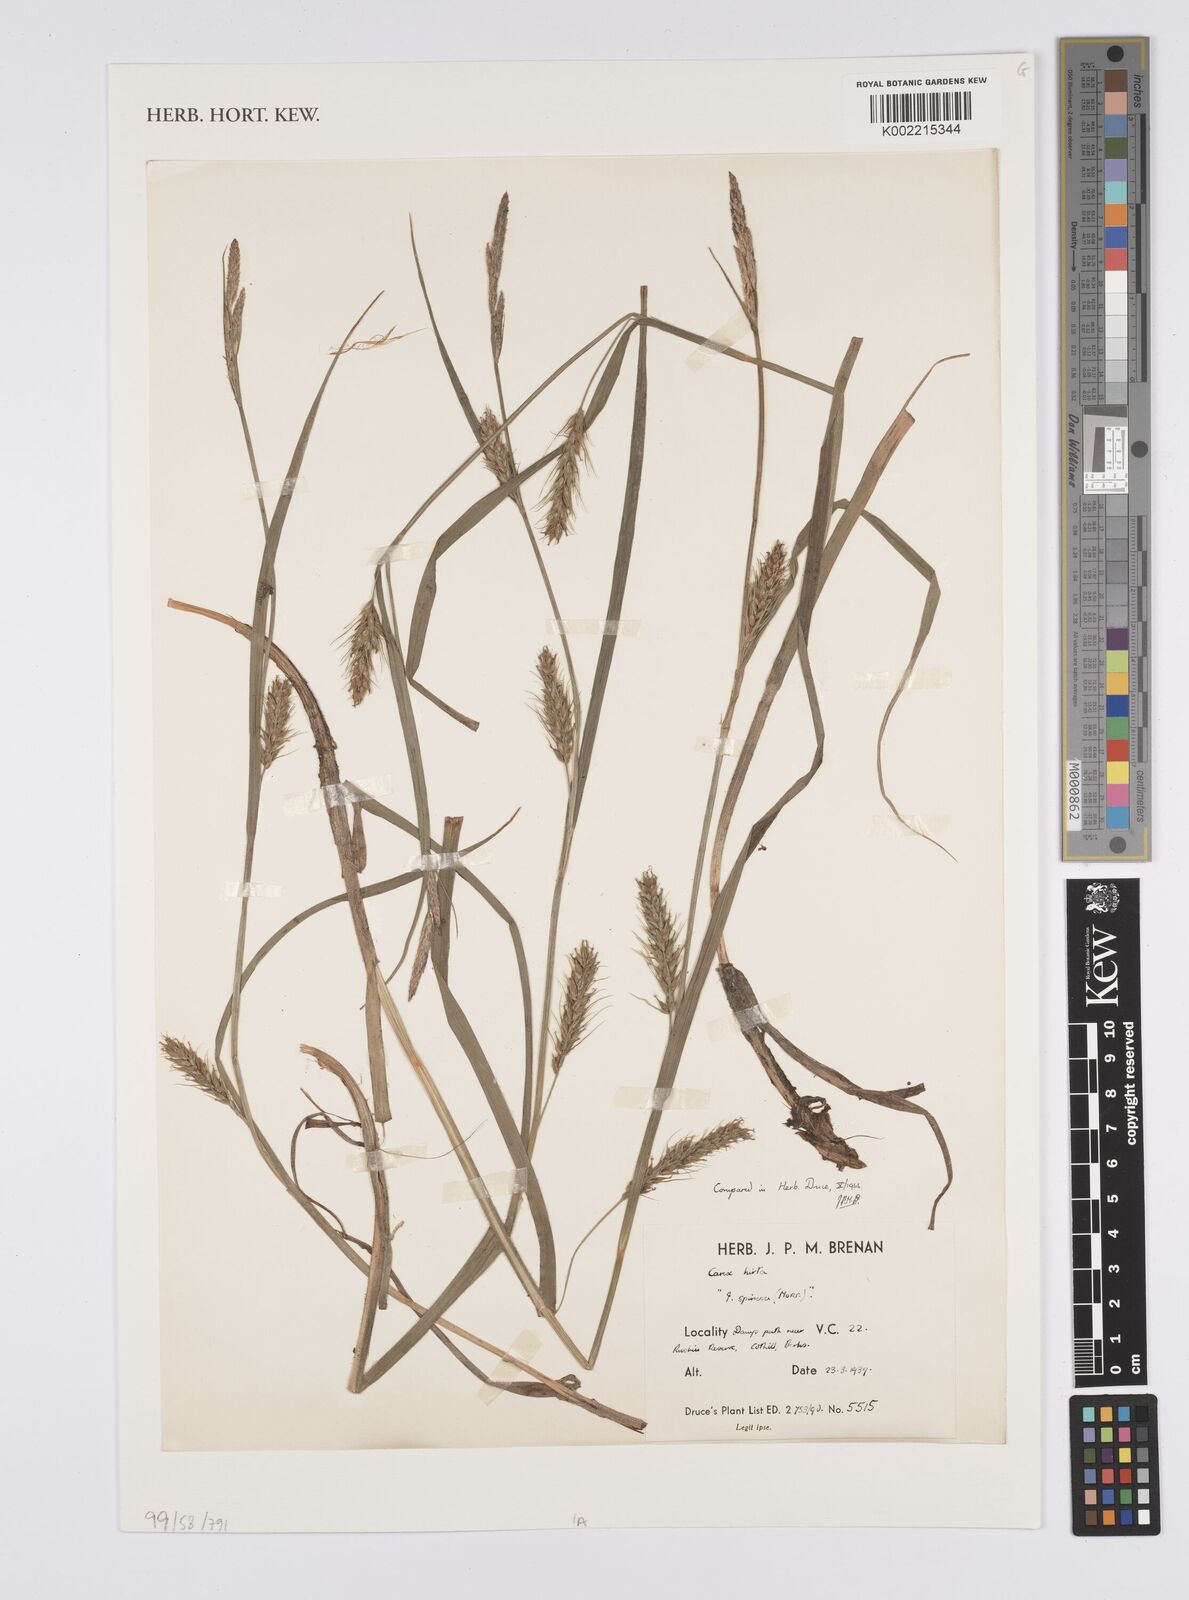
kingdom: Plantae
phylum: Tracheophyta
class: Liliopsida
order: Poales
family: Cyperaceae
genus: Carex
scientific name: Carex hirta
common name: Hairy sedge
